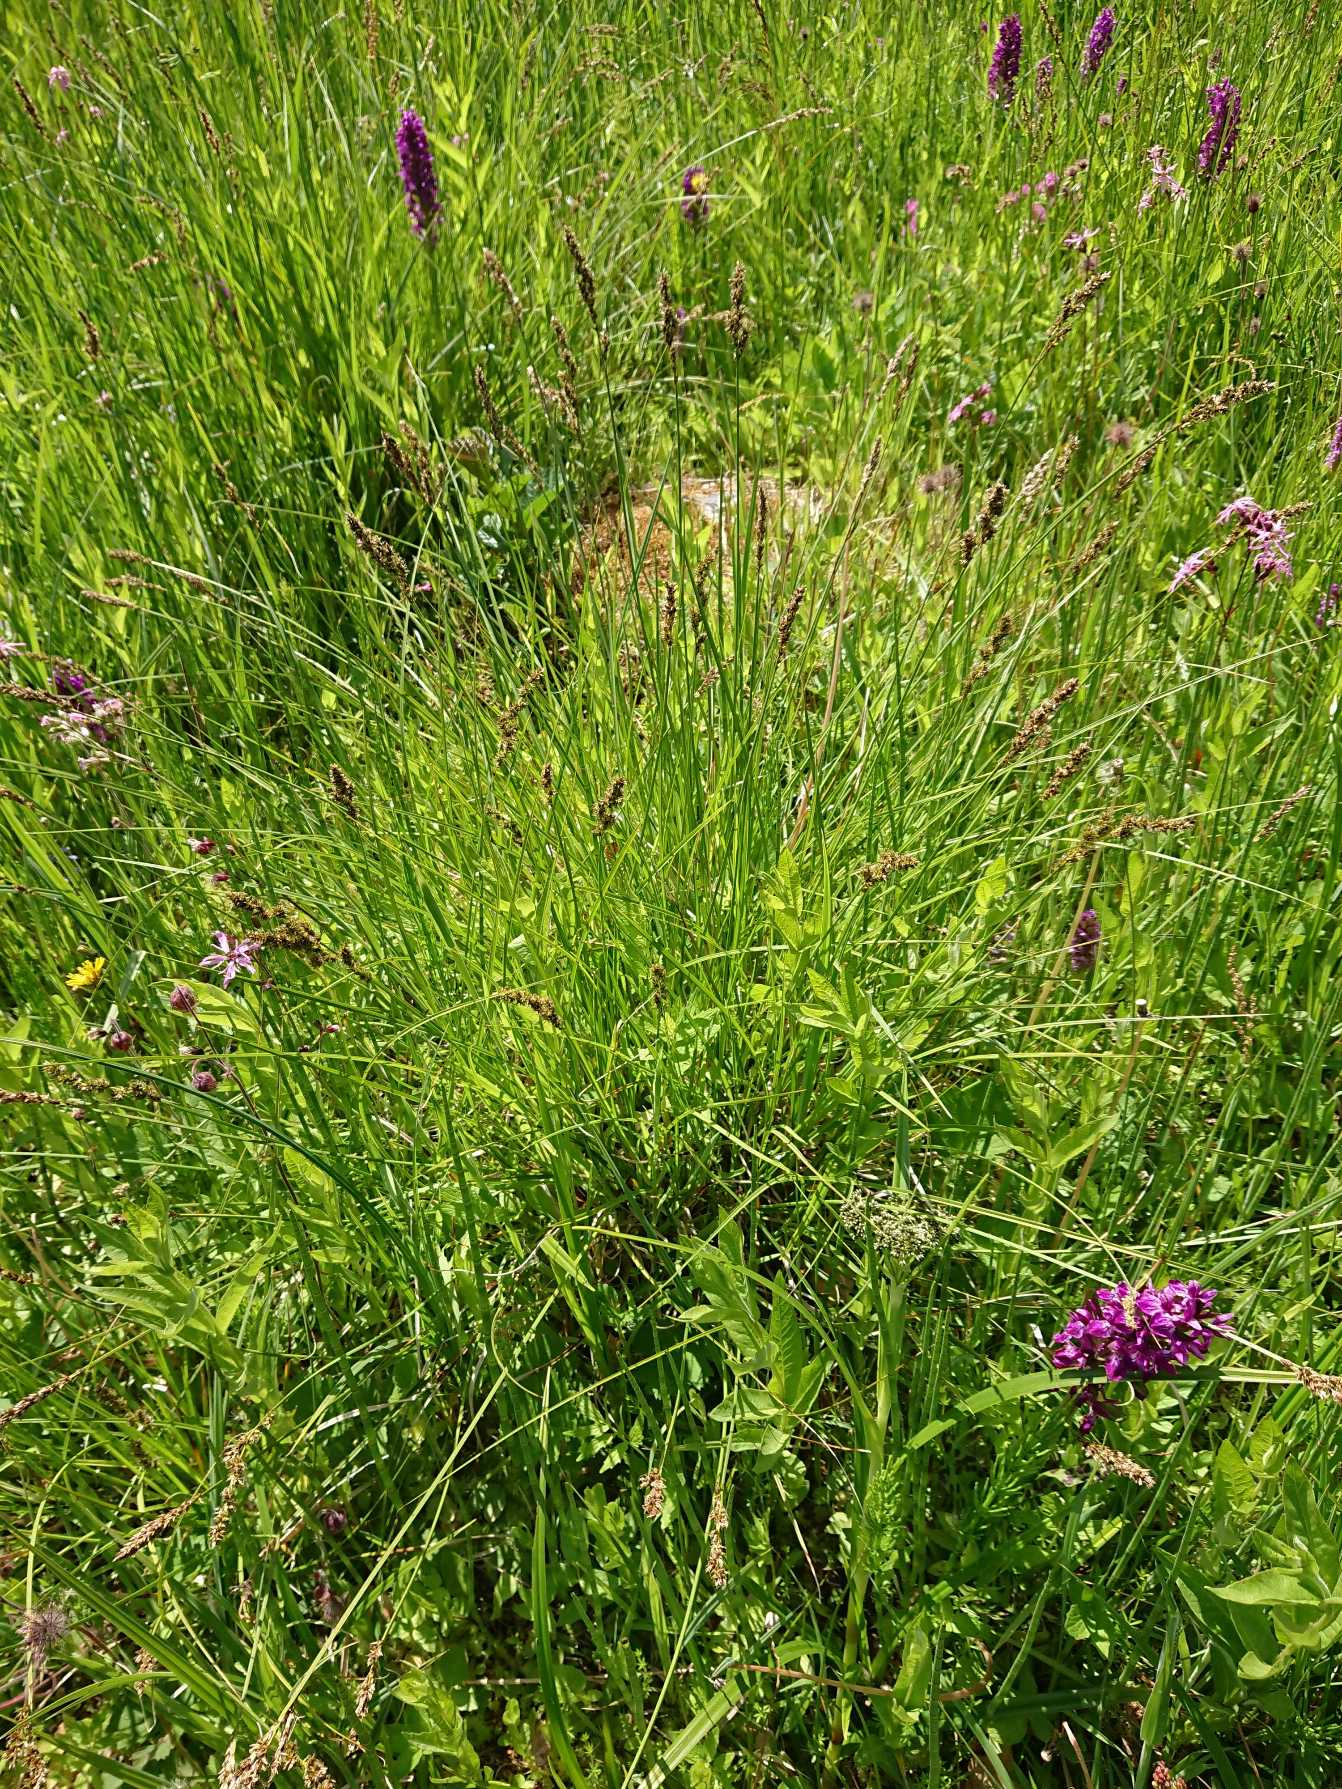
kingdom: Plantae
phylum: Tracheophyta
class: Liliopsida
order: Poales
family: Cyperaceae
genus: Carex
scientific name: Carex paniculata
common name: Top-star
